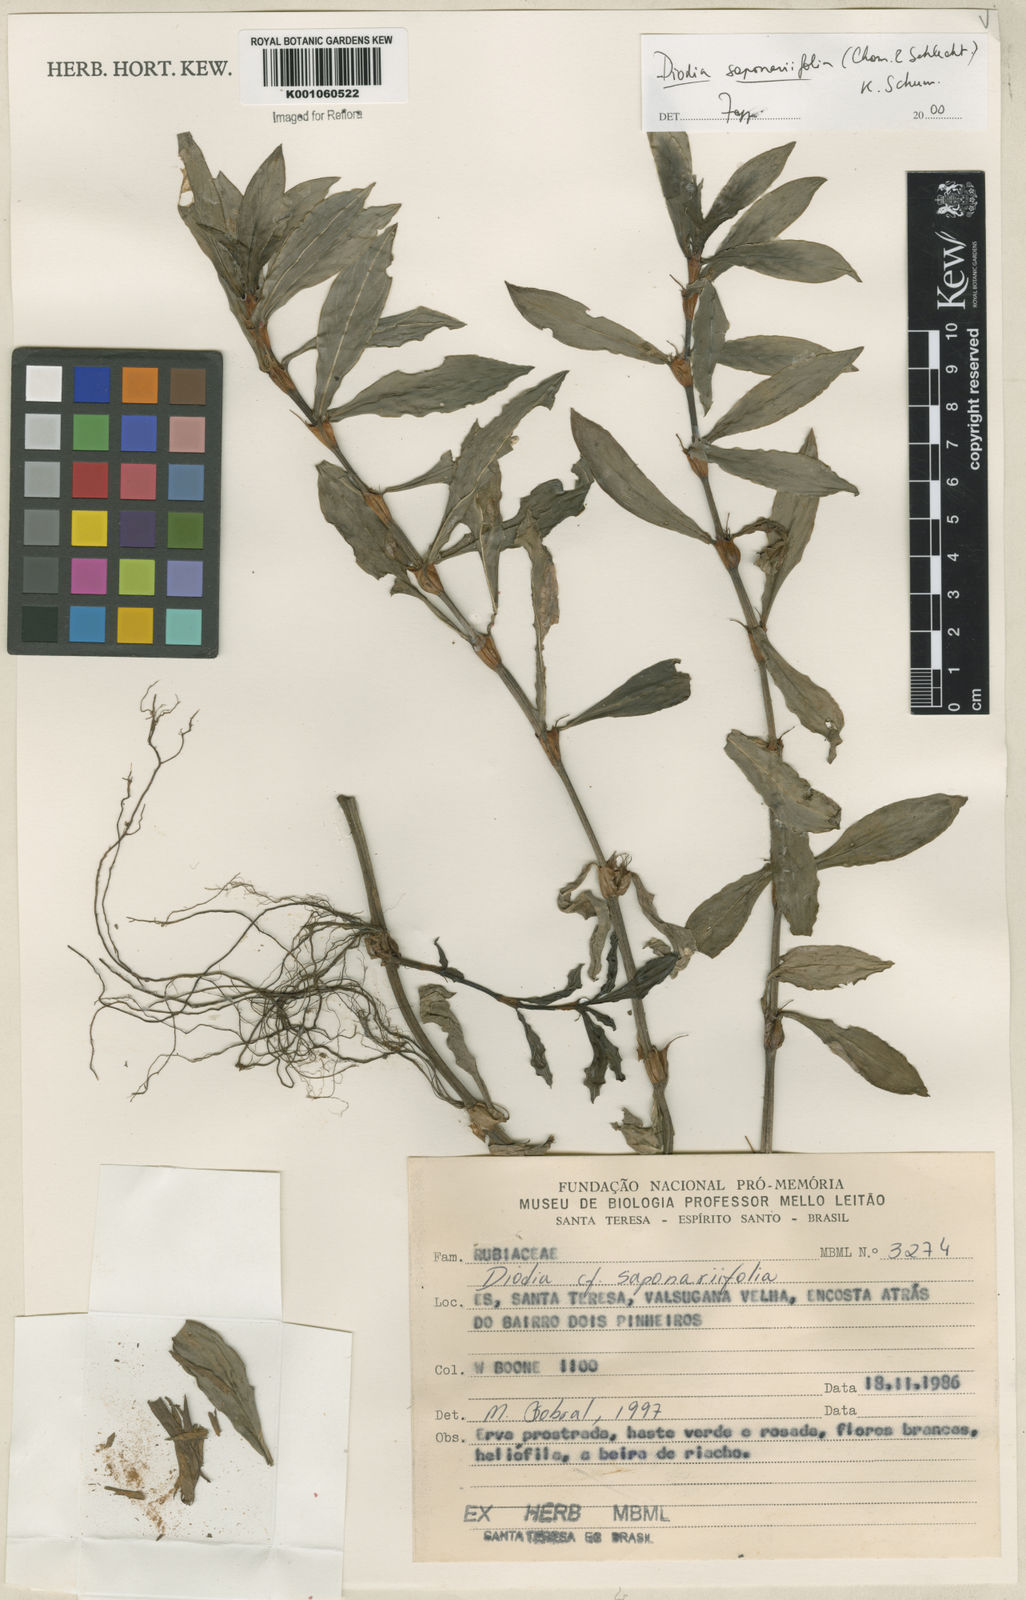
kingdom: Plantae
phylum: Tracheophyta
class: Magnoliopsida
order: Gentianales
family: Rubiaceae
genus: Diodia
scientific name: Diodia saponariifolia
